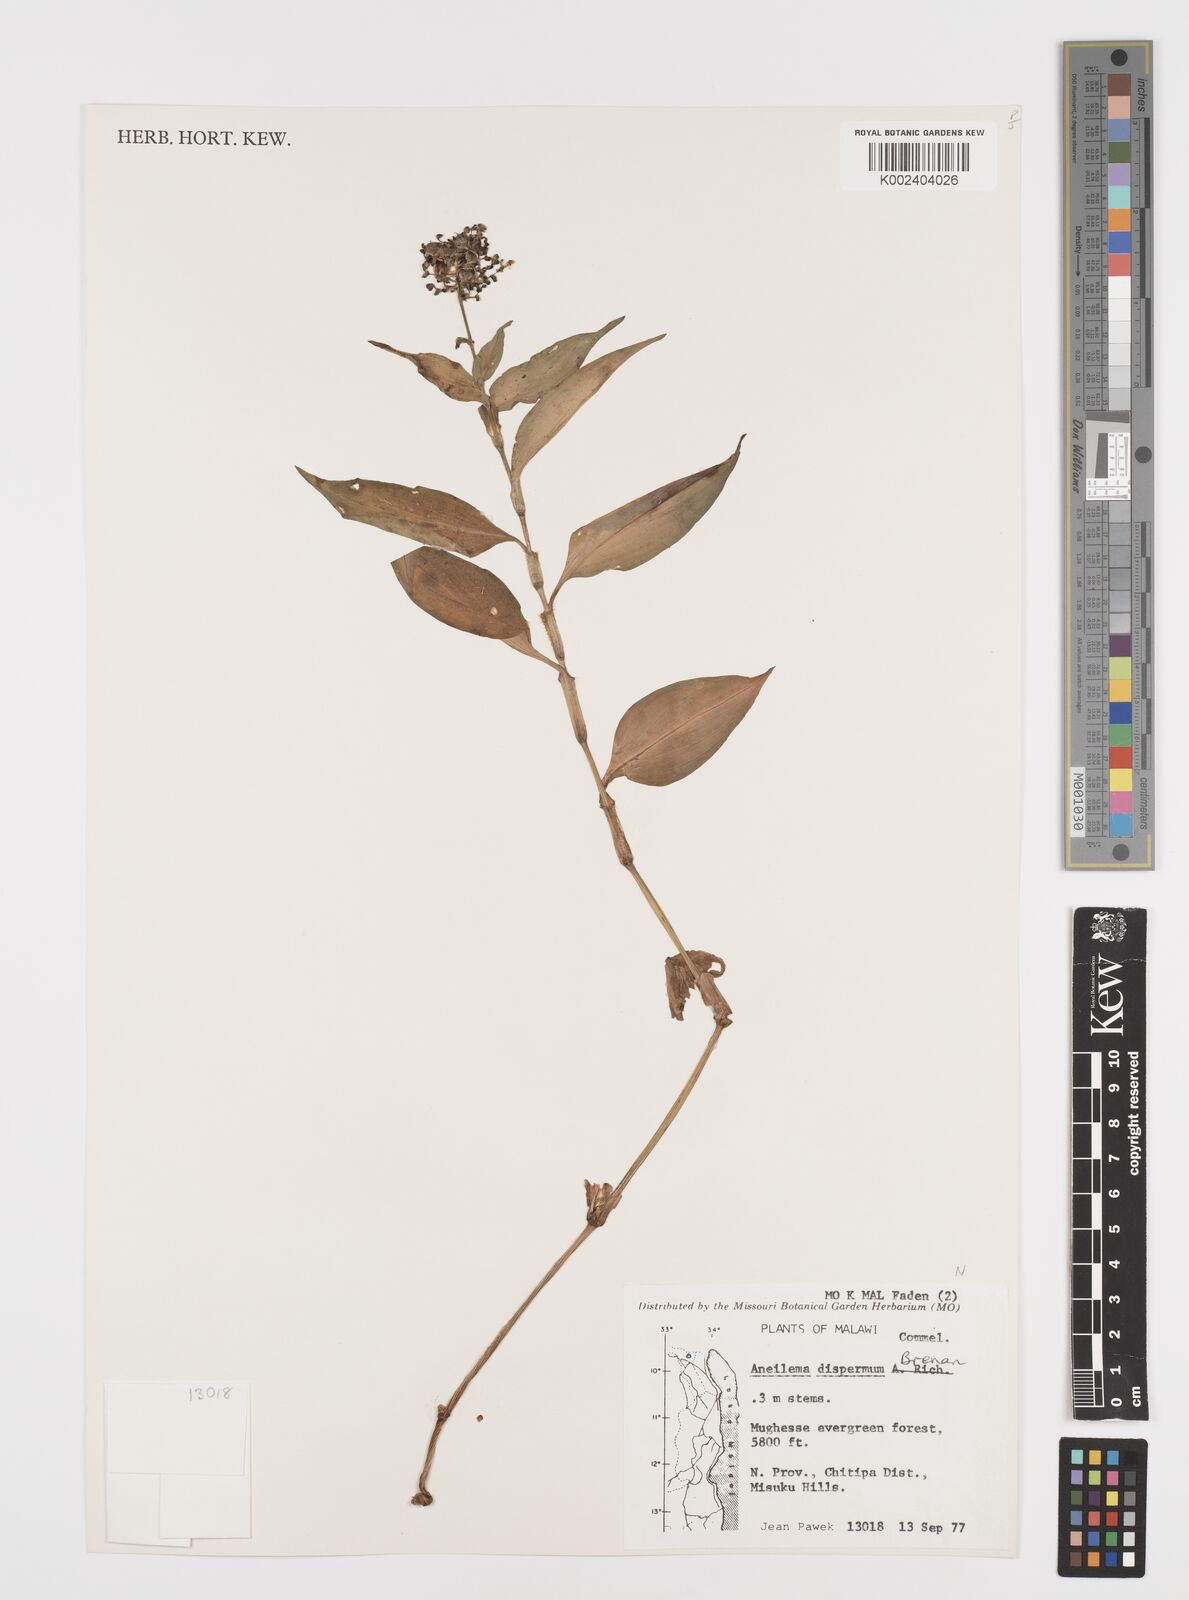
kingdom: Plantae
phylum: Tracheophyta
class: Liliopsida
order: Commelinales
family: Commelinaceae
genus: Aneilema
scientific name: Aneilema dispermum
